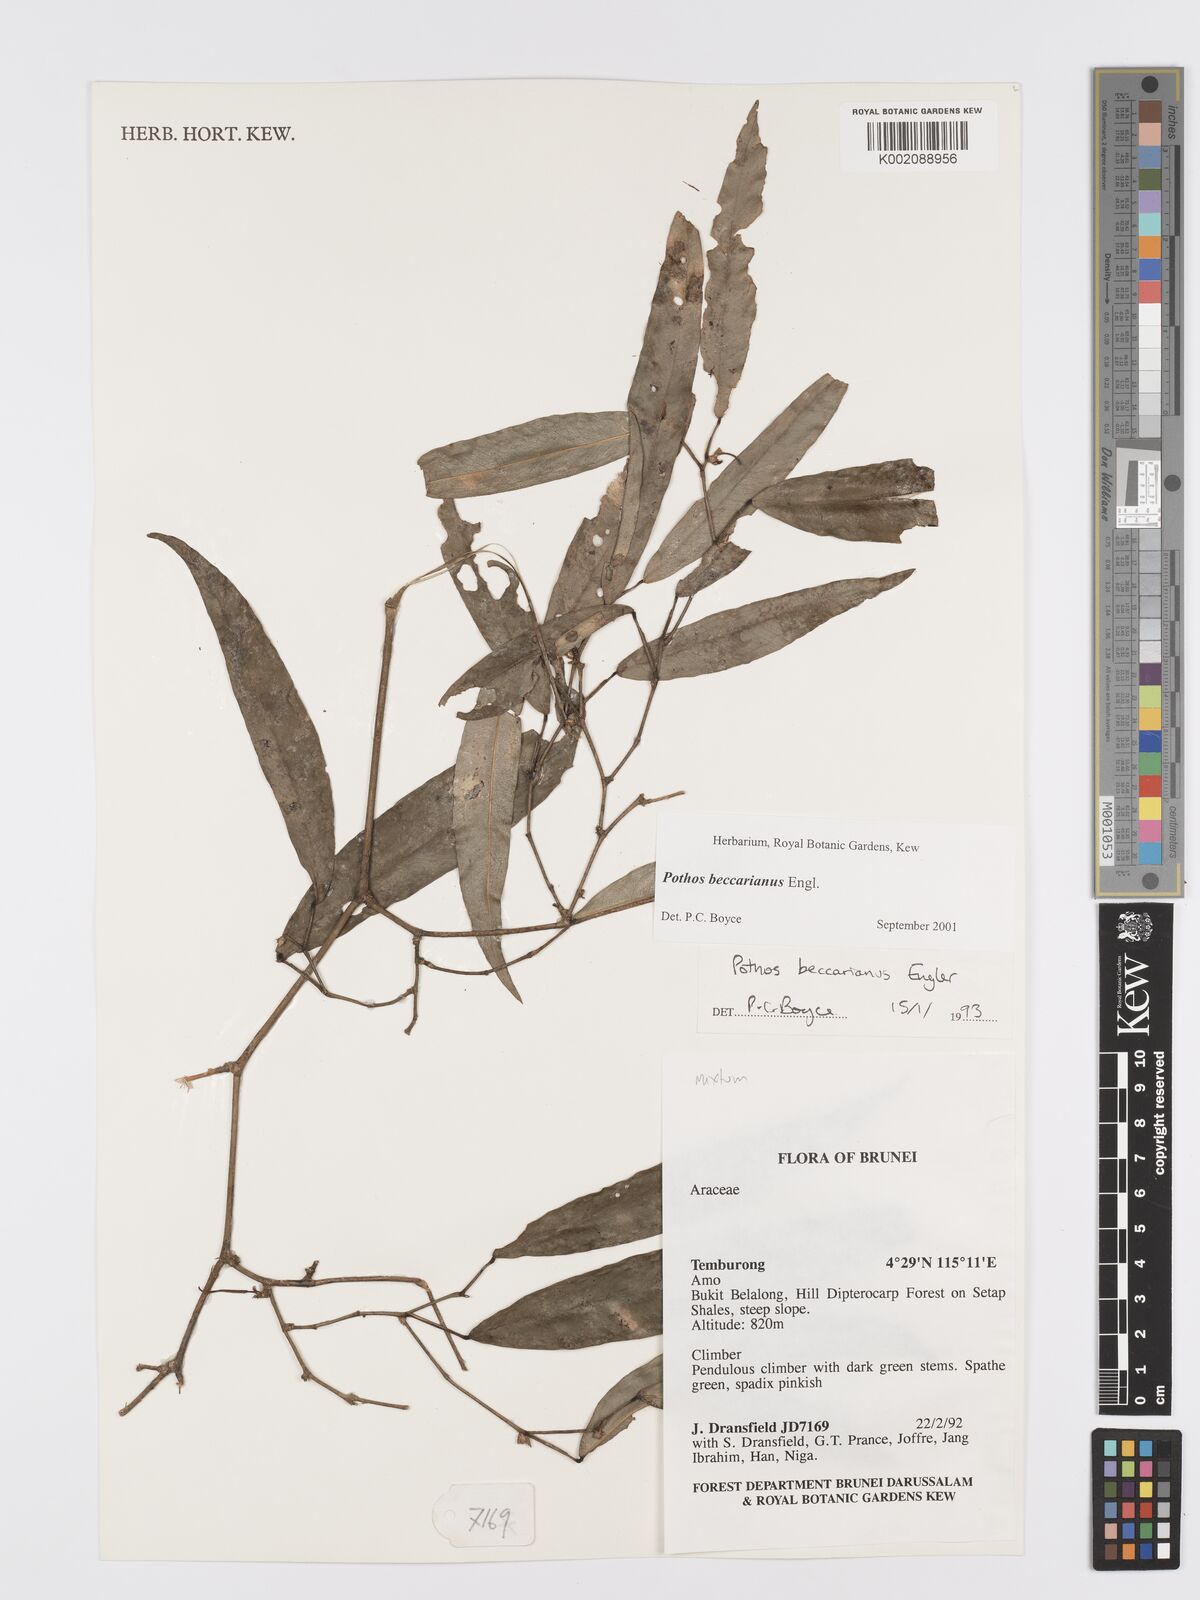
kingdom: Plantae
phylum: Tracheophyta
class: Liliopsida
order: Alismatales
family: Araceae
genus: Pothos
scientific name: Pothos beccarianus
